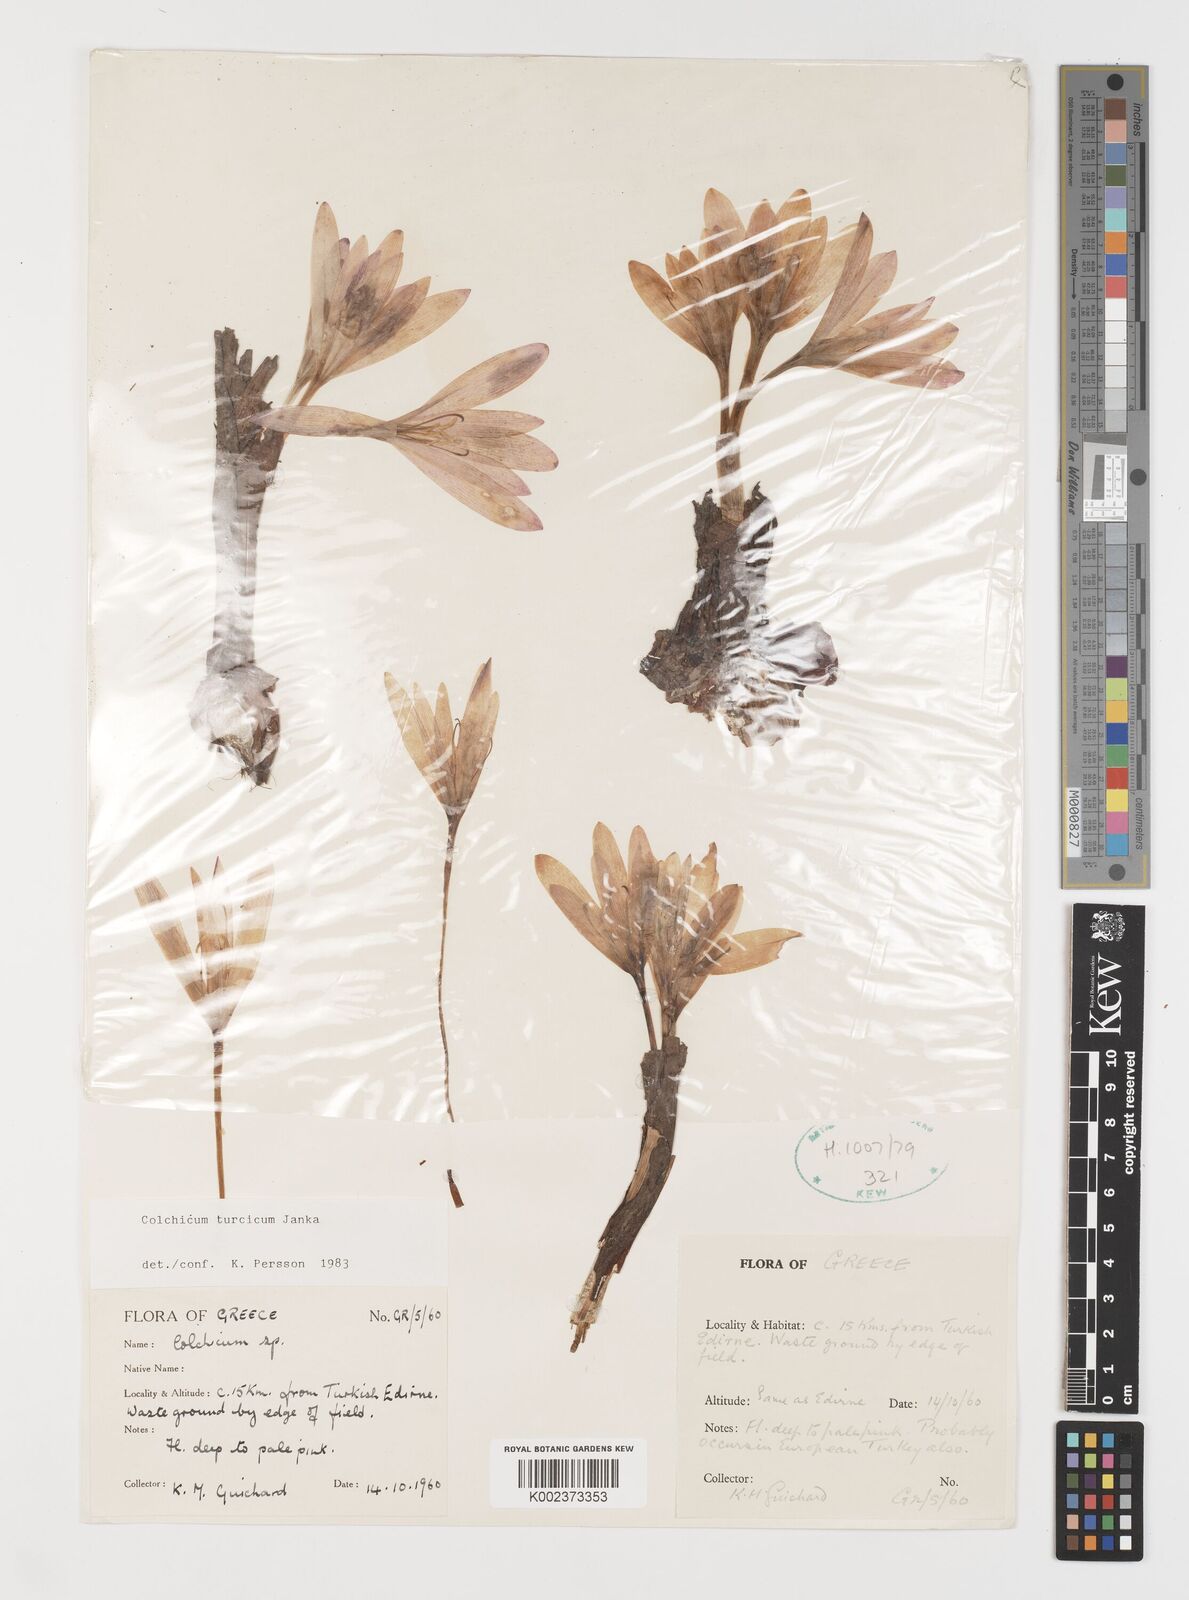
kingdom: Plantae
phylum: Tracheophyta
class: Liliopsida
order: Liliales
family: Colchicaceae
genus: Colchicum
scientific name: Colchicum turcicum
